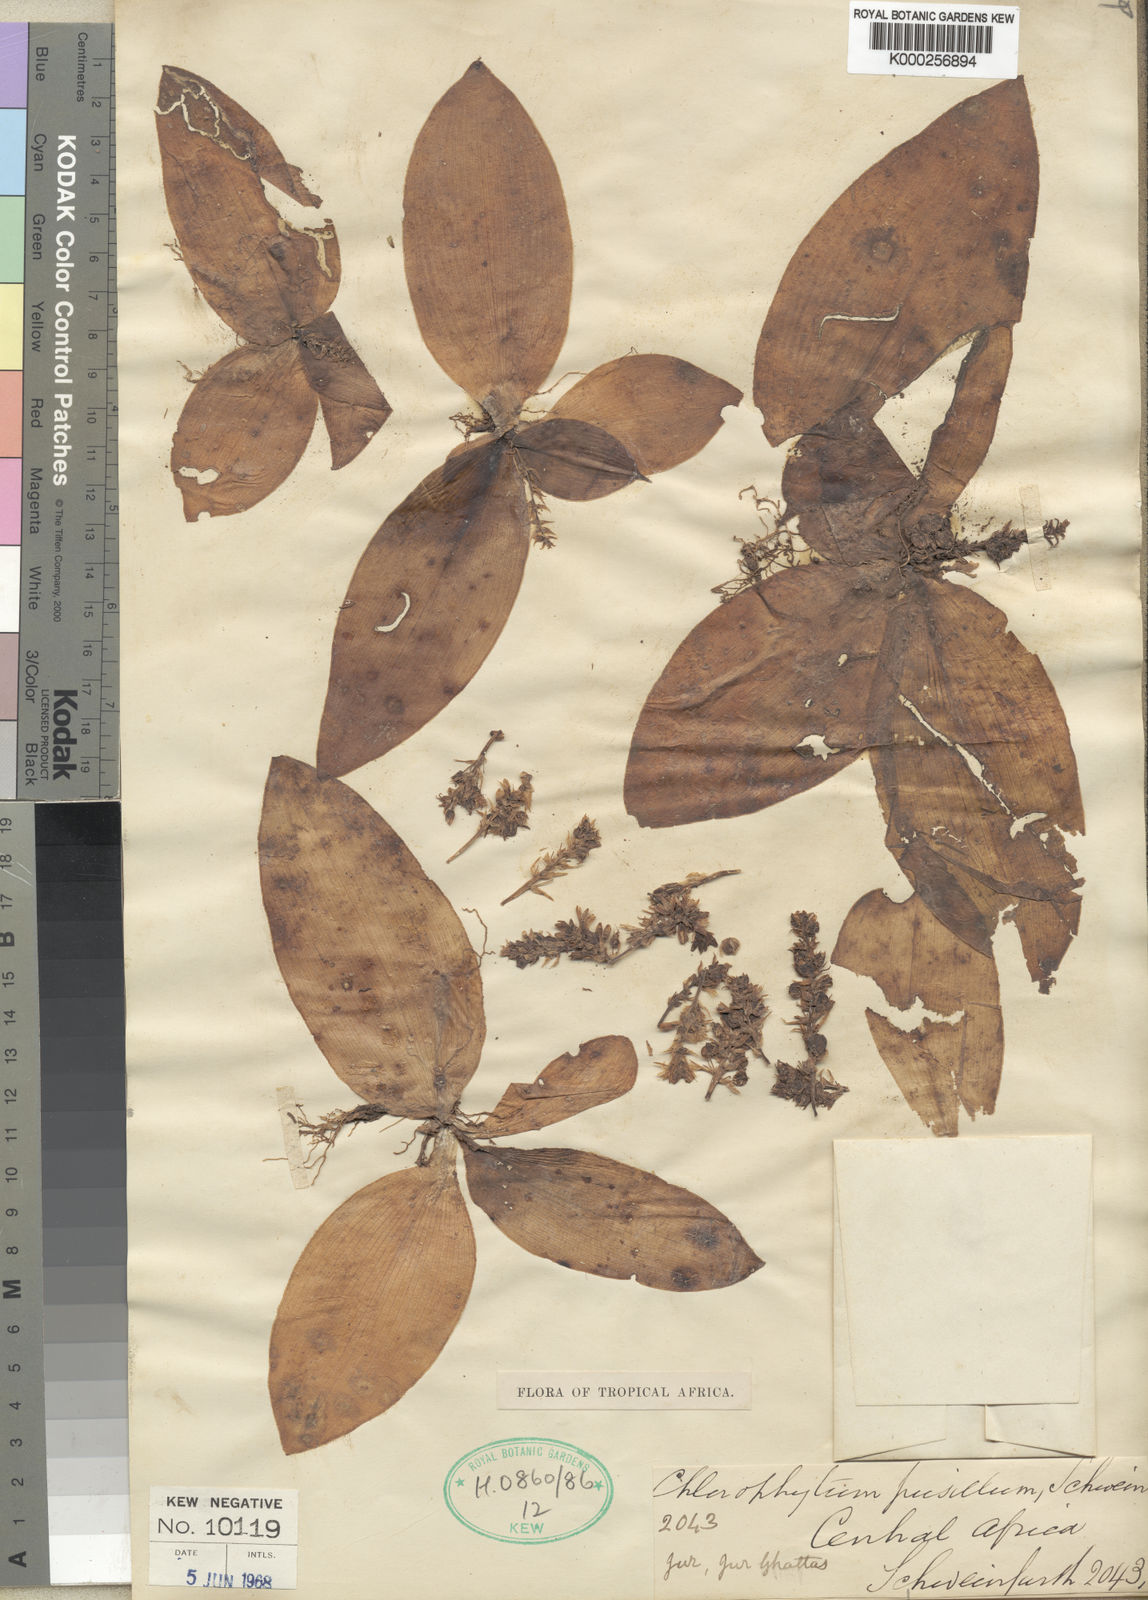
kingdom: Plantae
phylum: Tracheophyta
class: Liliopsida
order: Asparagales
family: Asparagaceae
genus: Chlorophytum
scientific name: Chlorophytum pusillum
